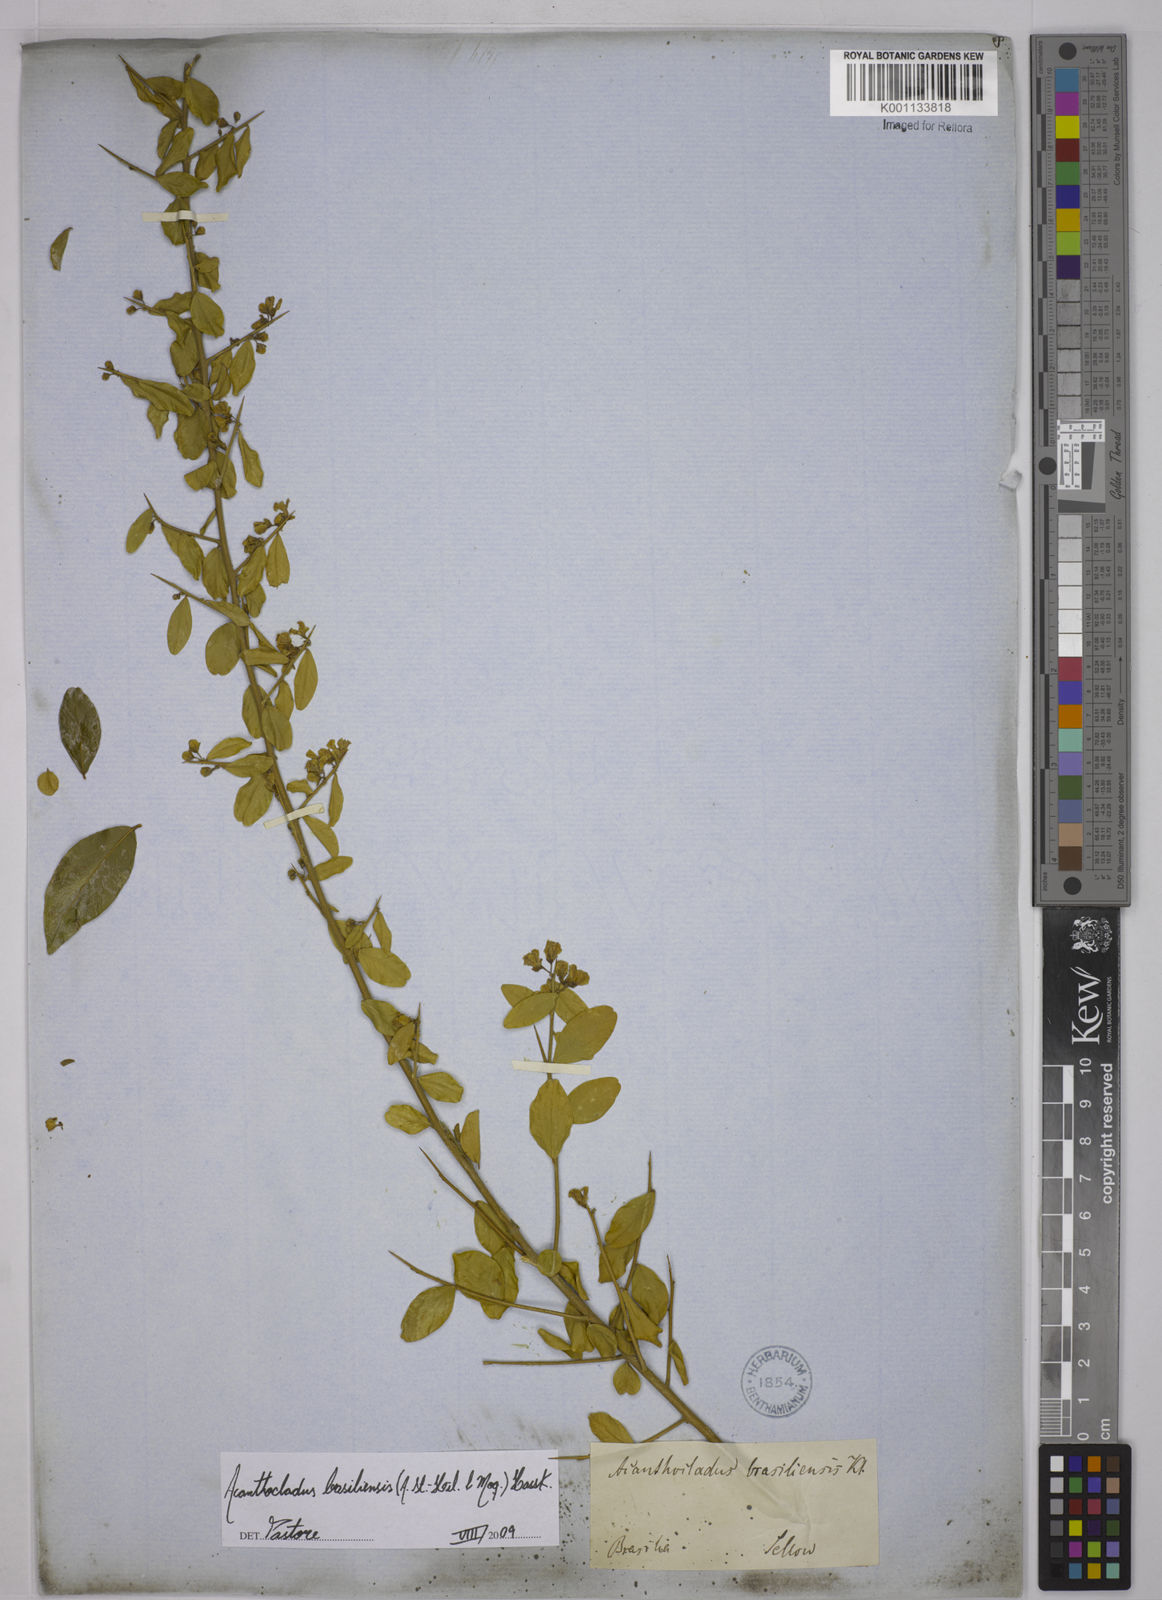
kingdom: Plantae
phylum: Tracheophyta
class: Magnoliopsida
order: Fabales
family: Polygalaceae
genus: Acanthocladus
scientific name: Acanthocladus brasiliensis
